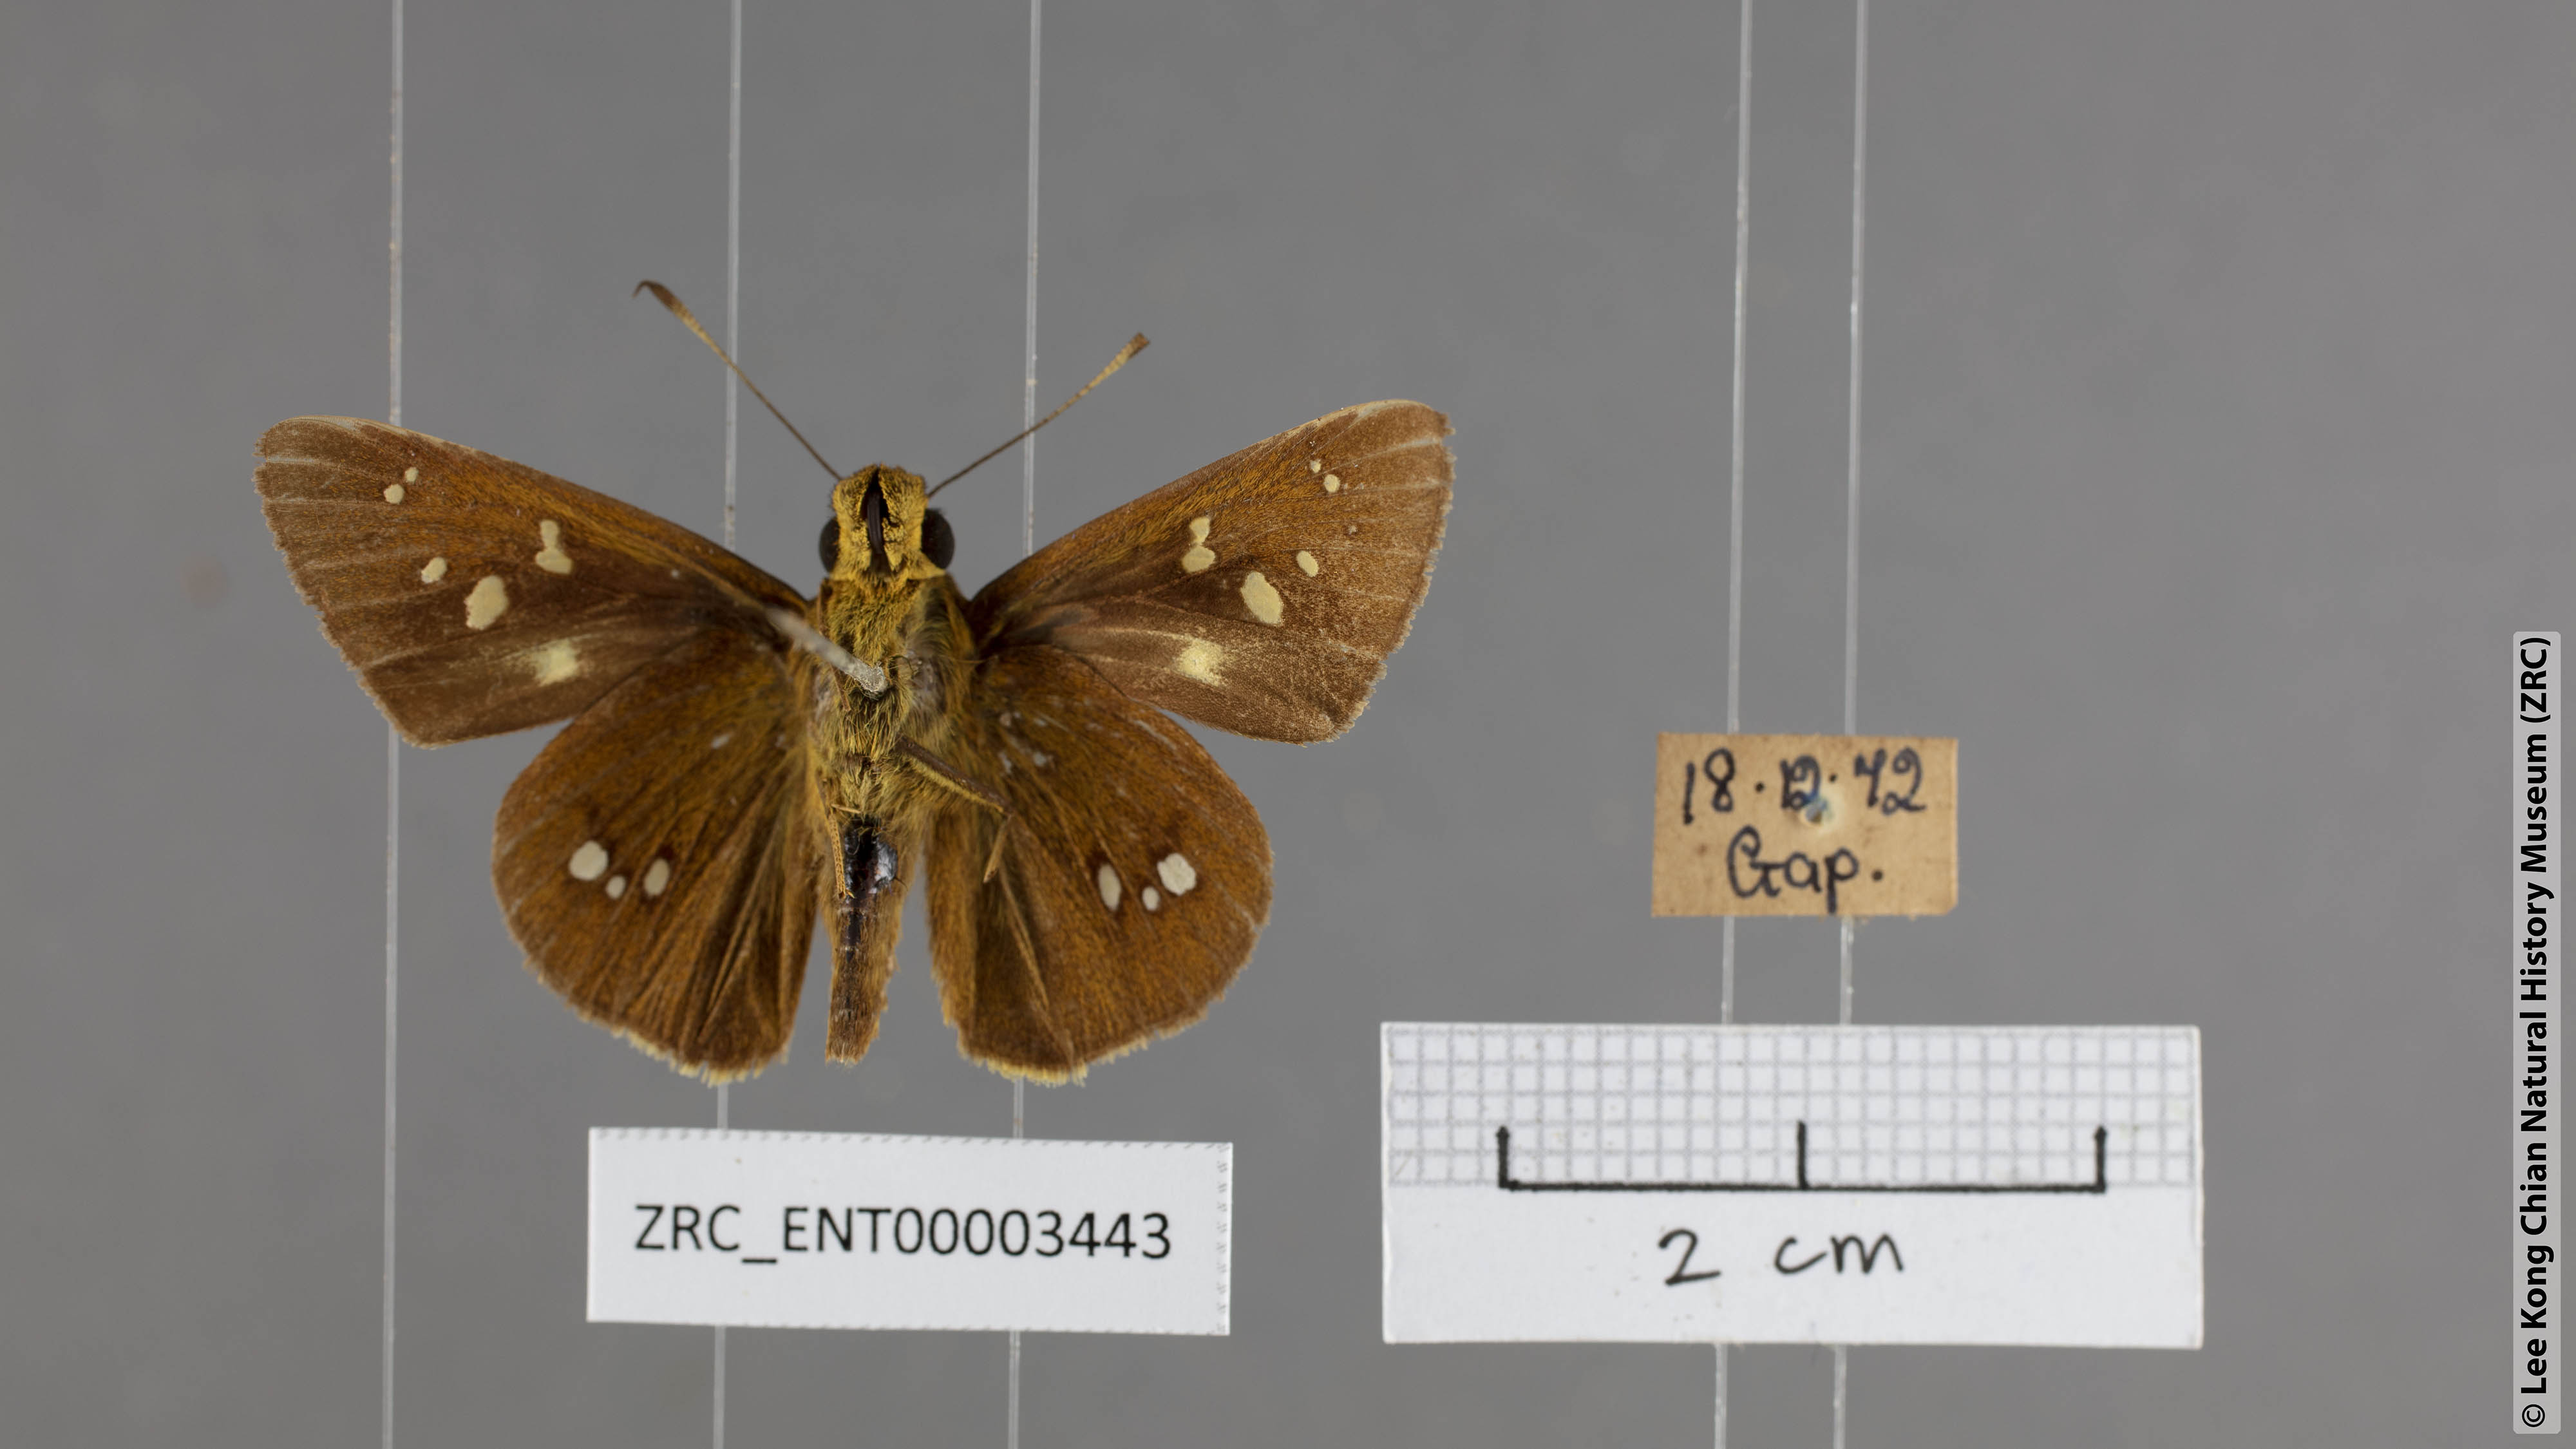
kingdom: Animalia
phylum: Arthropoda
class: Insecta
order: Lepidoptera
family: Hesperiidae
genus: Polytremis
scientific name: Polytremis eltola
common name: Yellow-spot swift
